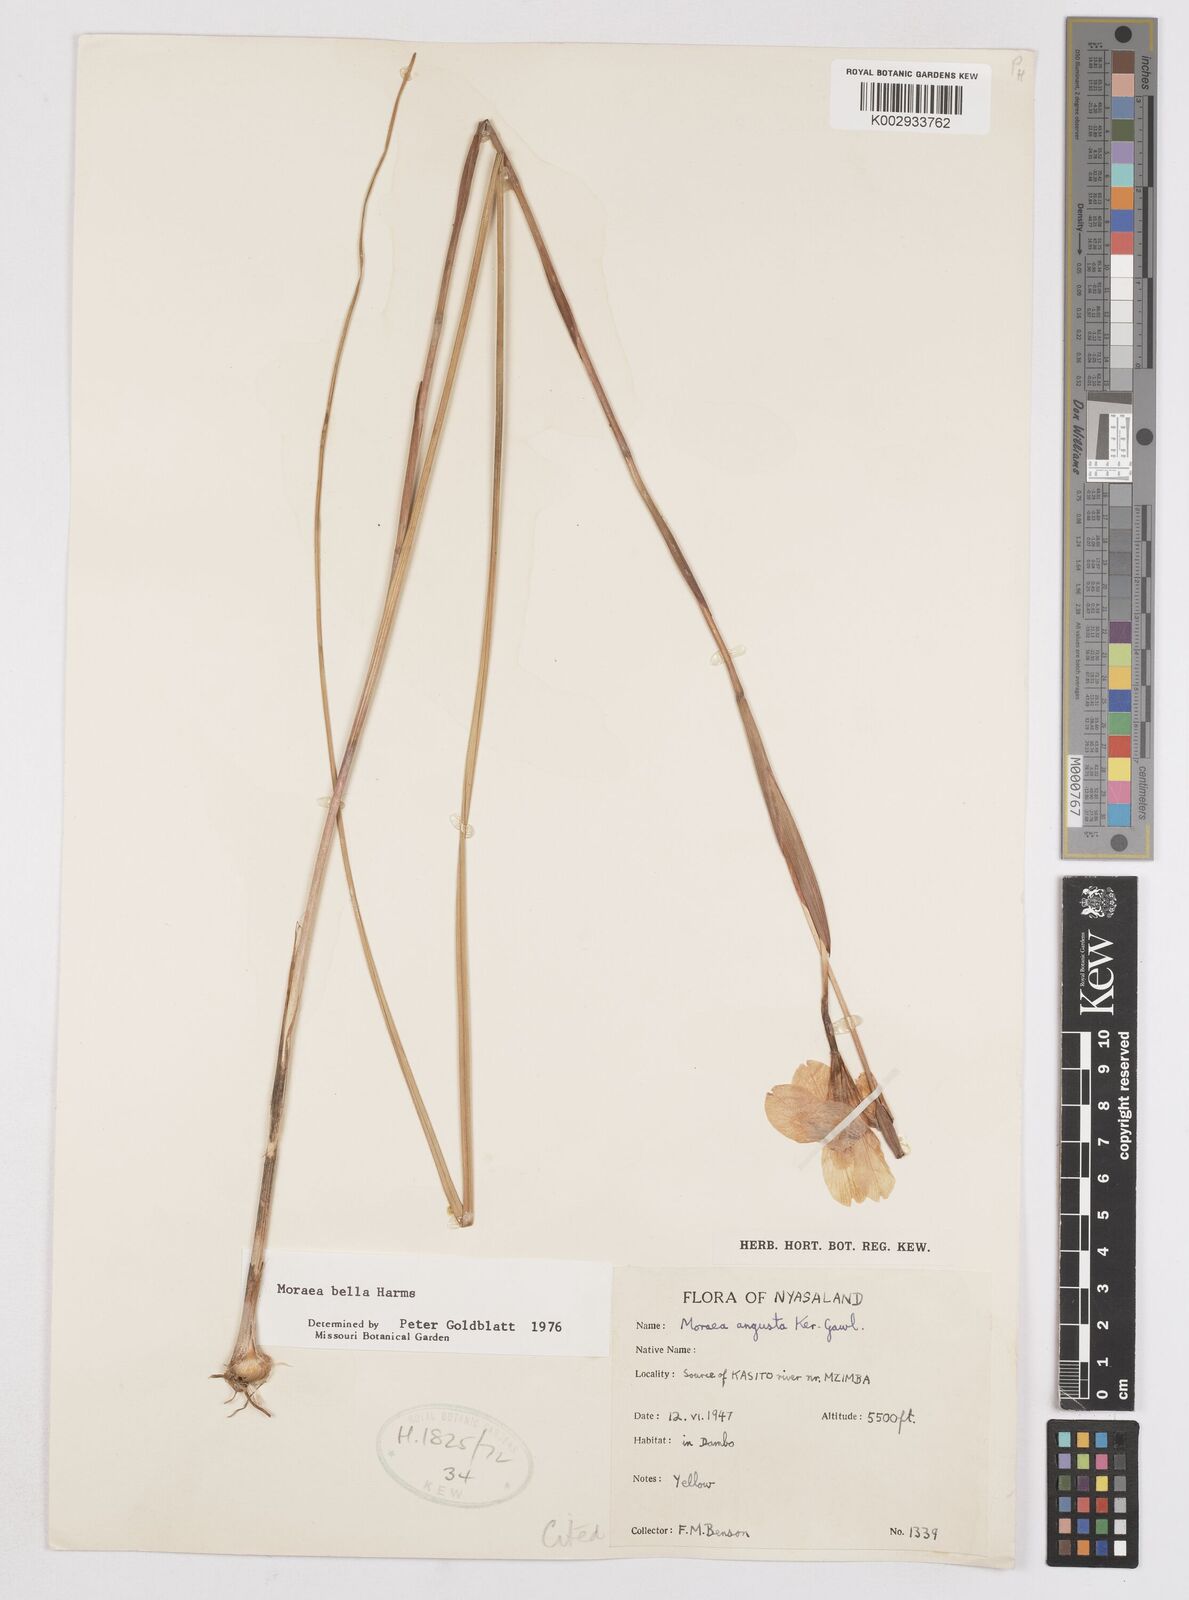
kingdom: Plantae
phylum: Tracheophyta
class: Liliopsida
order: Asparagales
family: Iridaceae
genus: Moraea
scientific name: Moraea bella
